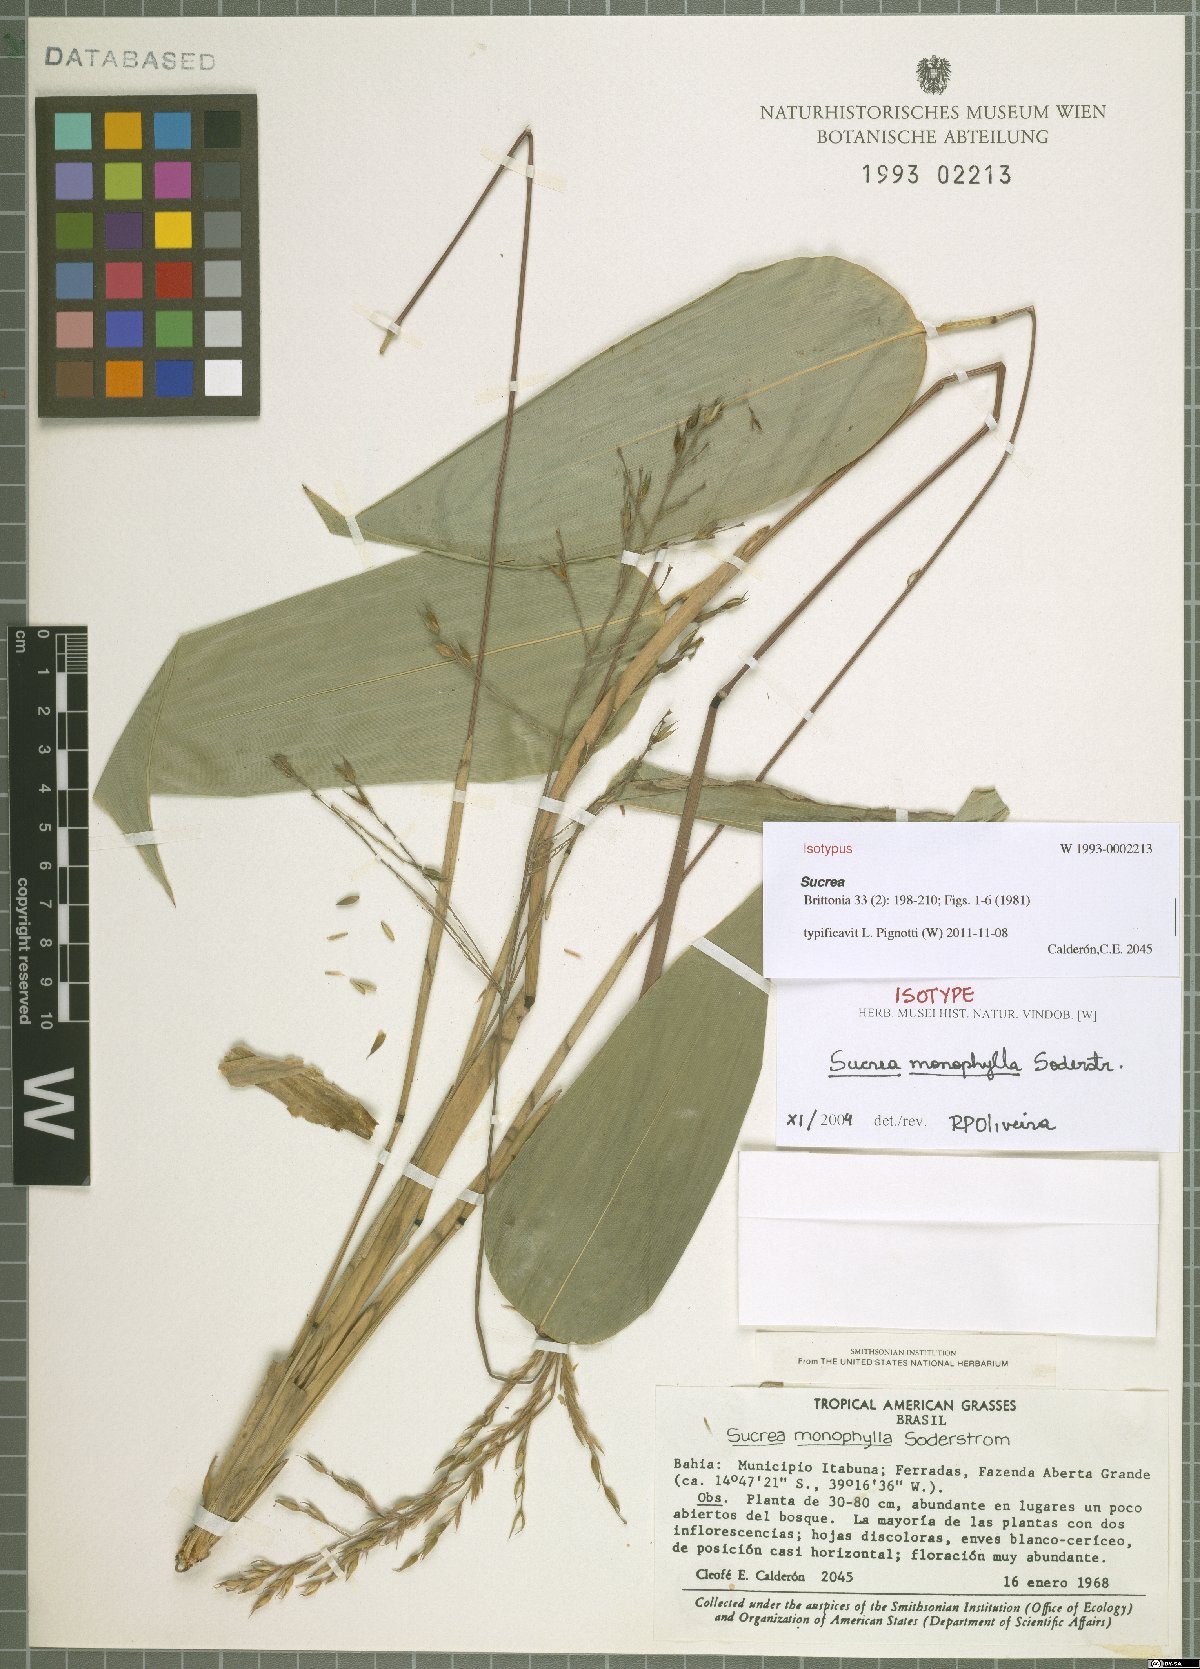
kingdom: Plantae
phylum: Tracheophyta
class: Liliopsida
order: Poales
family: Poaceae
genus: Raddia
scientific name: Raddia monophylla
